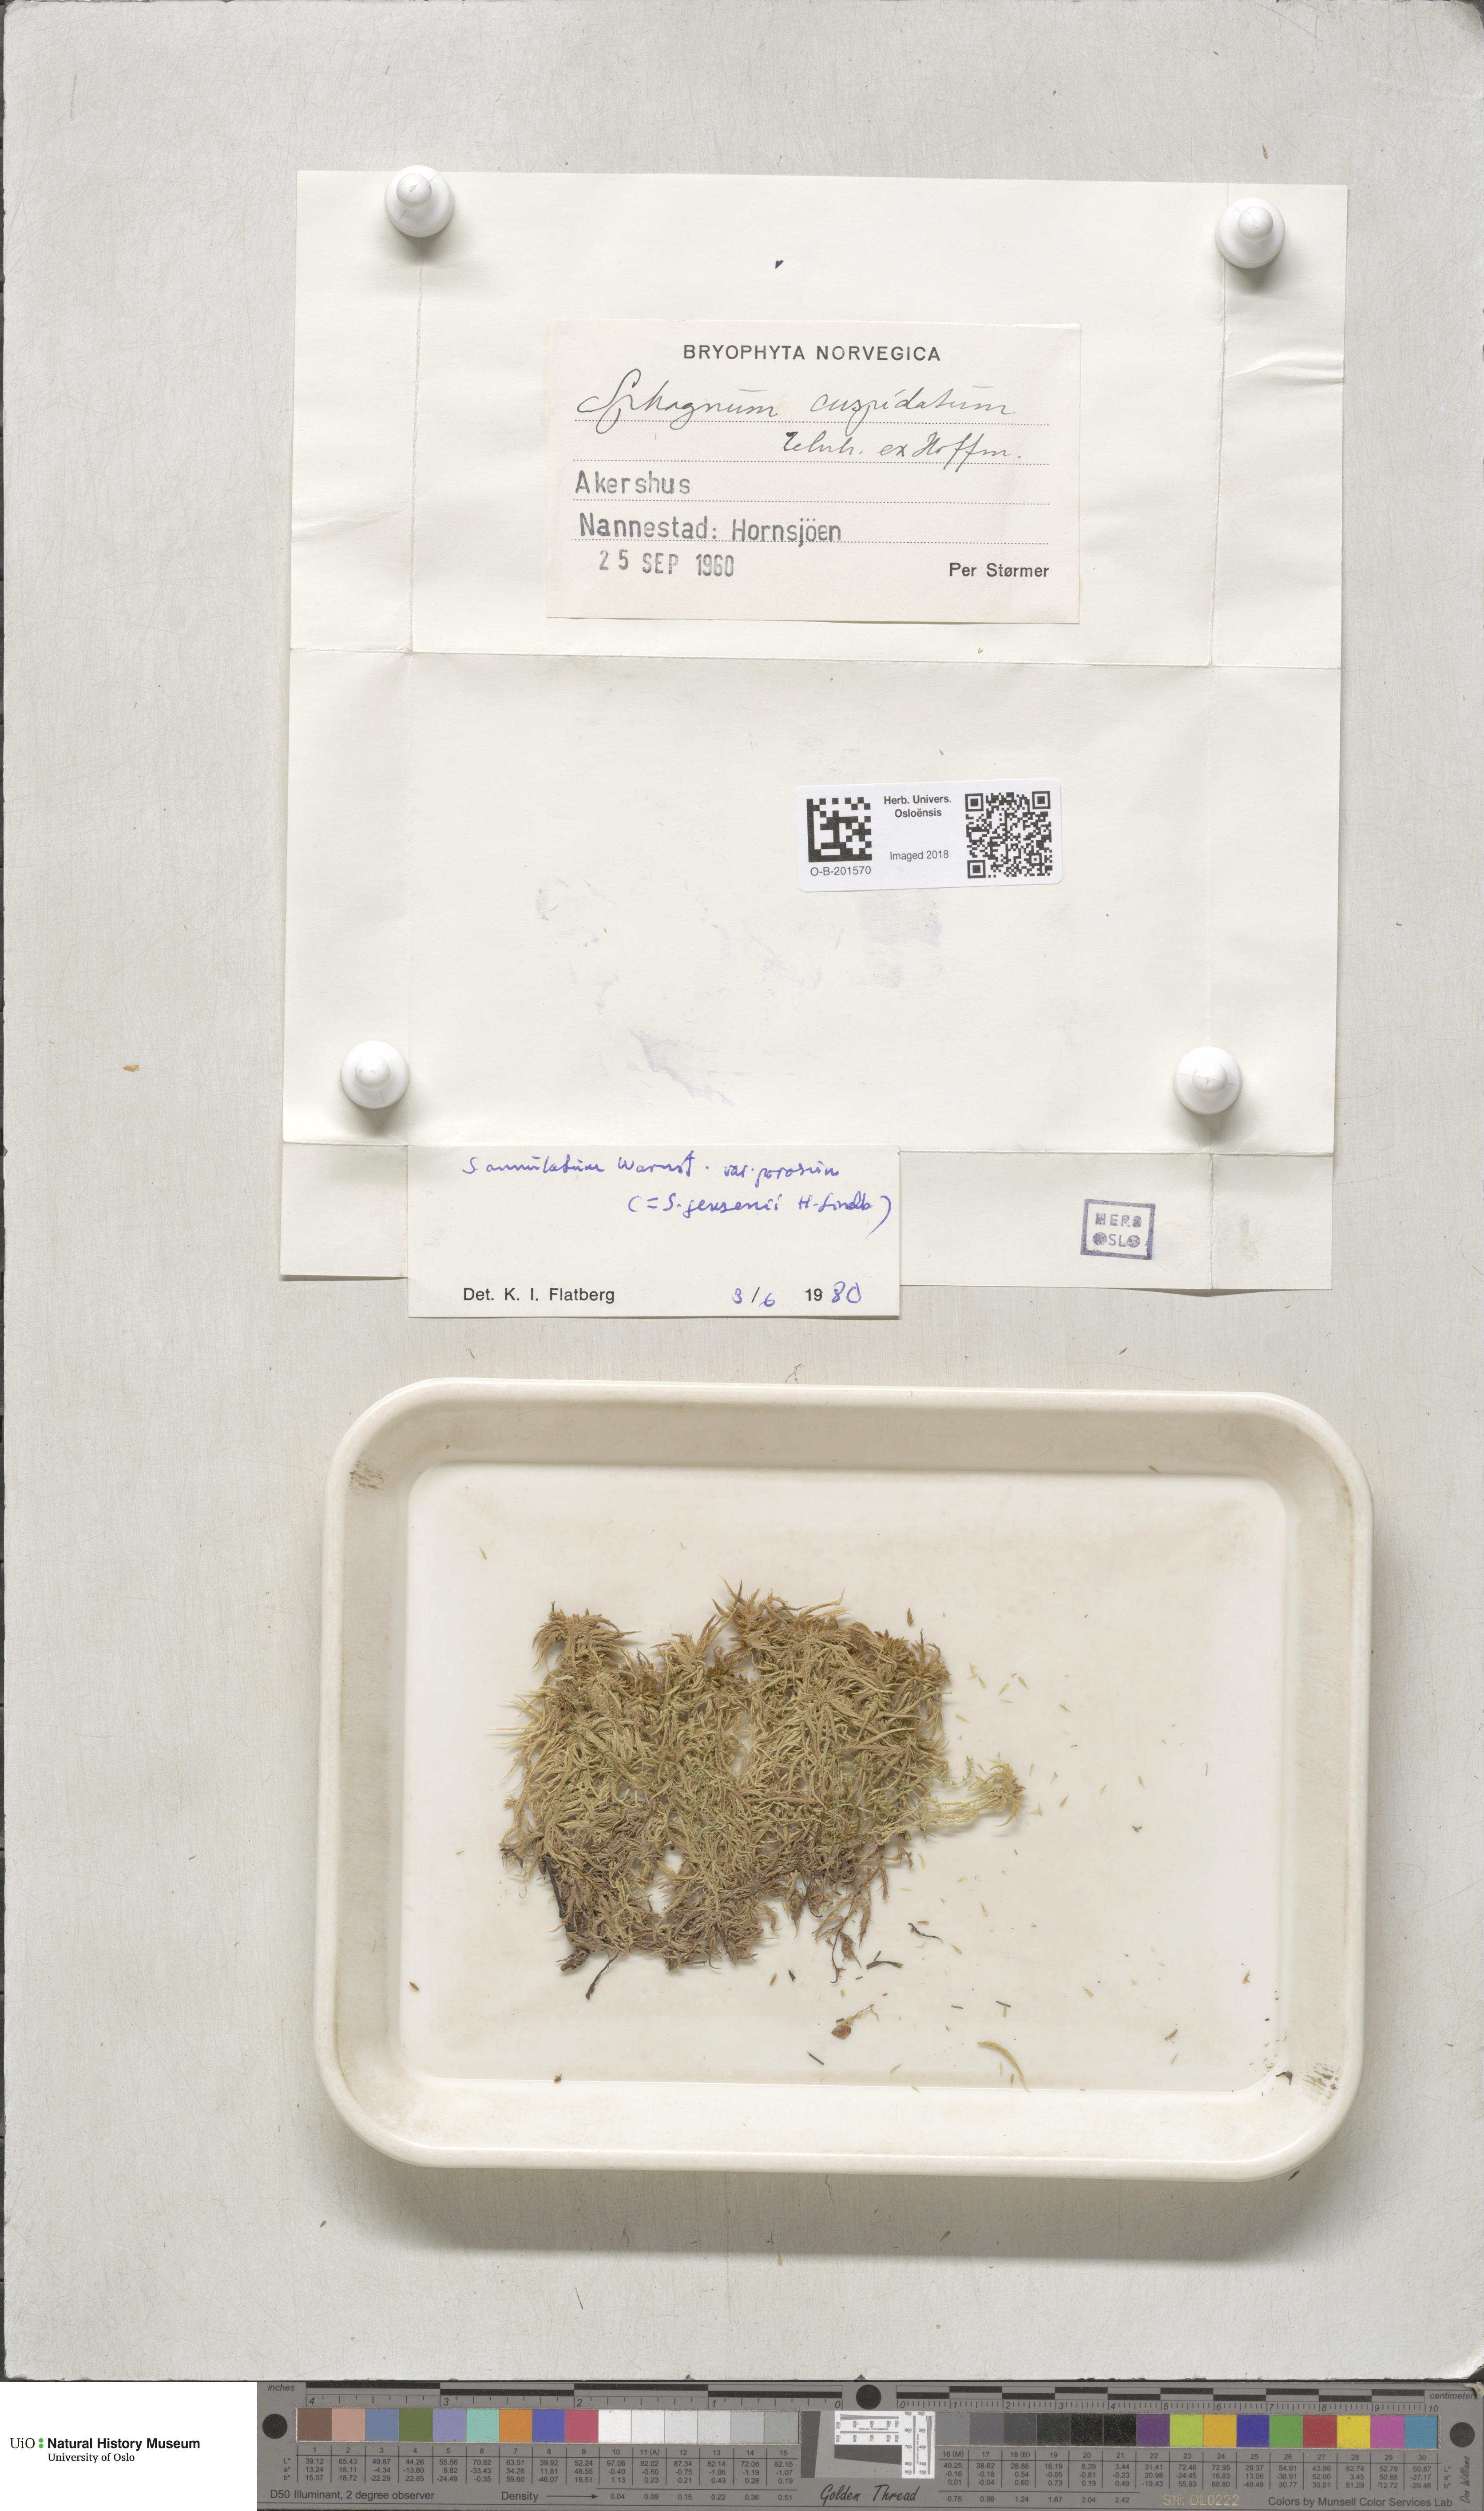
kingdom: Plantae
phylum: Bryophyta
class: Sphagnopsida
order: Sphagnales
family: Sphagnaceae
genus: Sphagnum
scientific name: Sphagnum jensenii
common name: Jensen's peat moss
